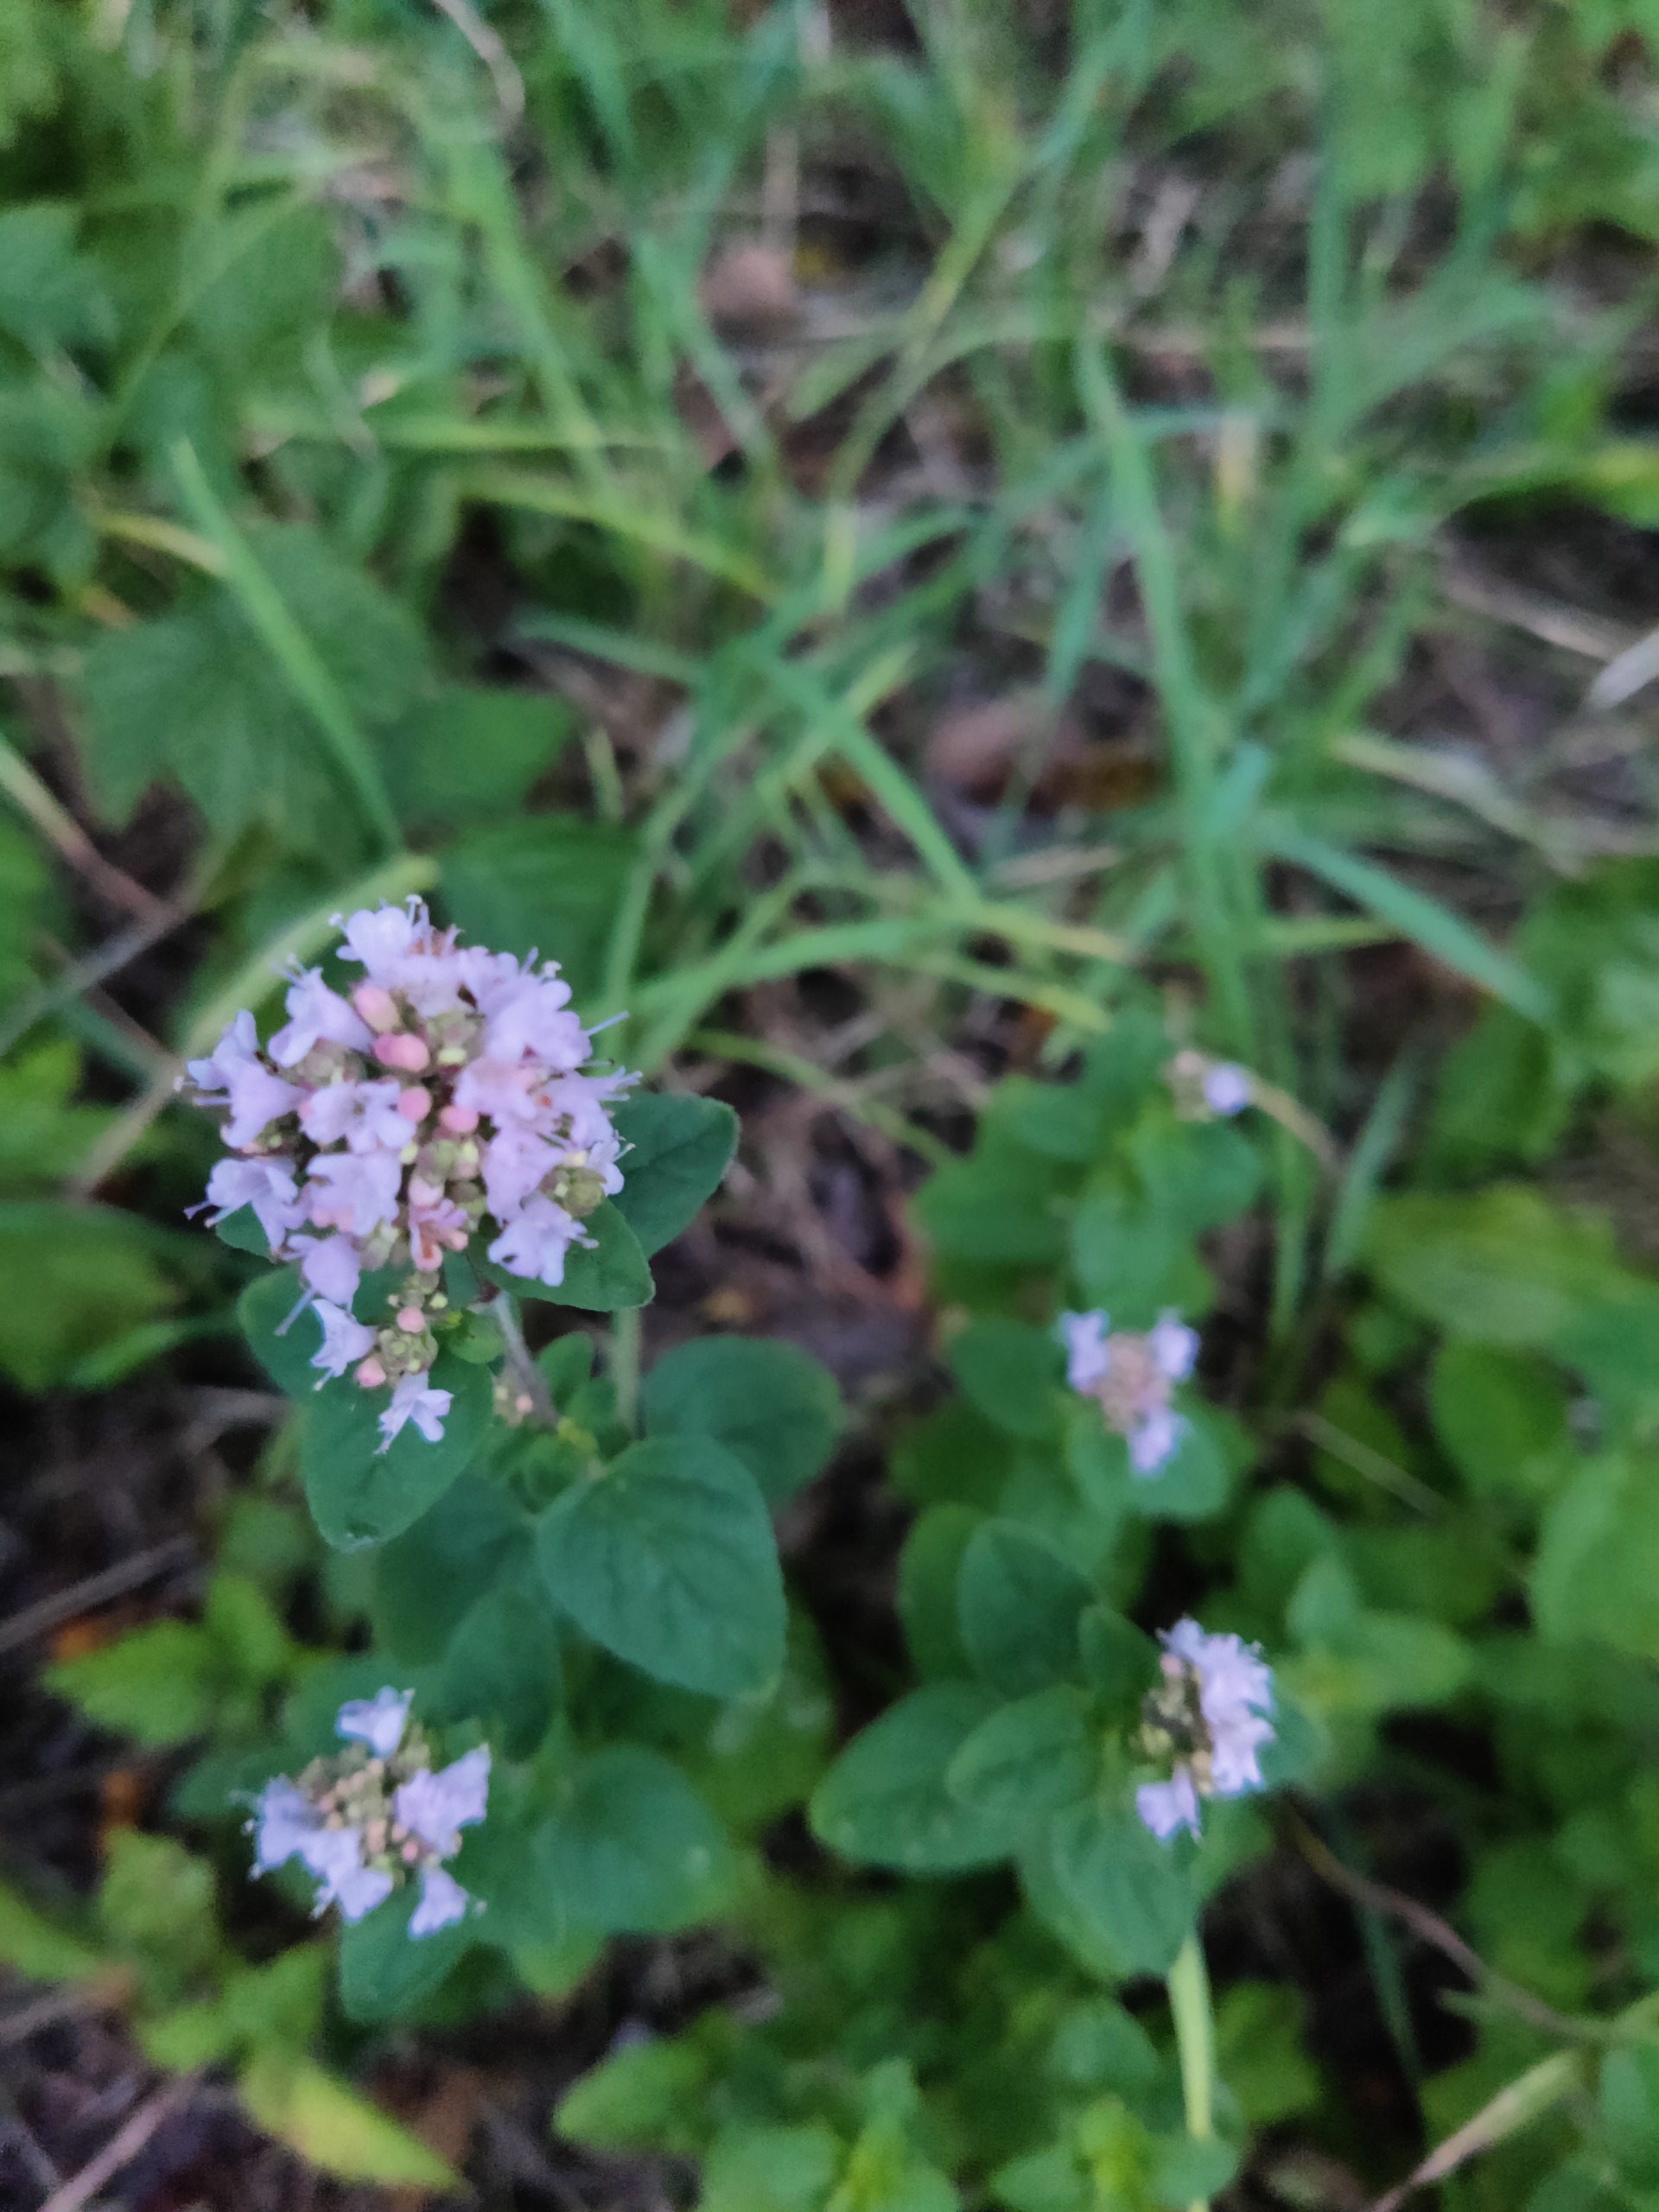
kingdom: Plantae
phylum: Tracheophyta
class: Magnoliopsida
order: Lamiales
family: Lamiaceae
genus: Origanum
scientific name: Origanum vulgare
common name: Merian
